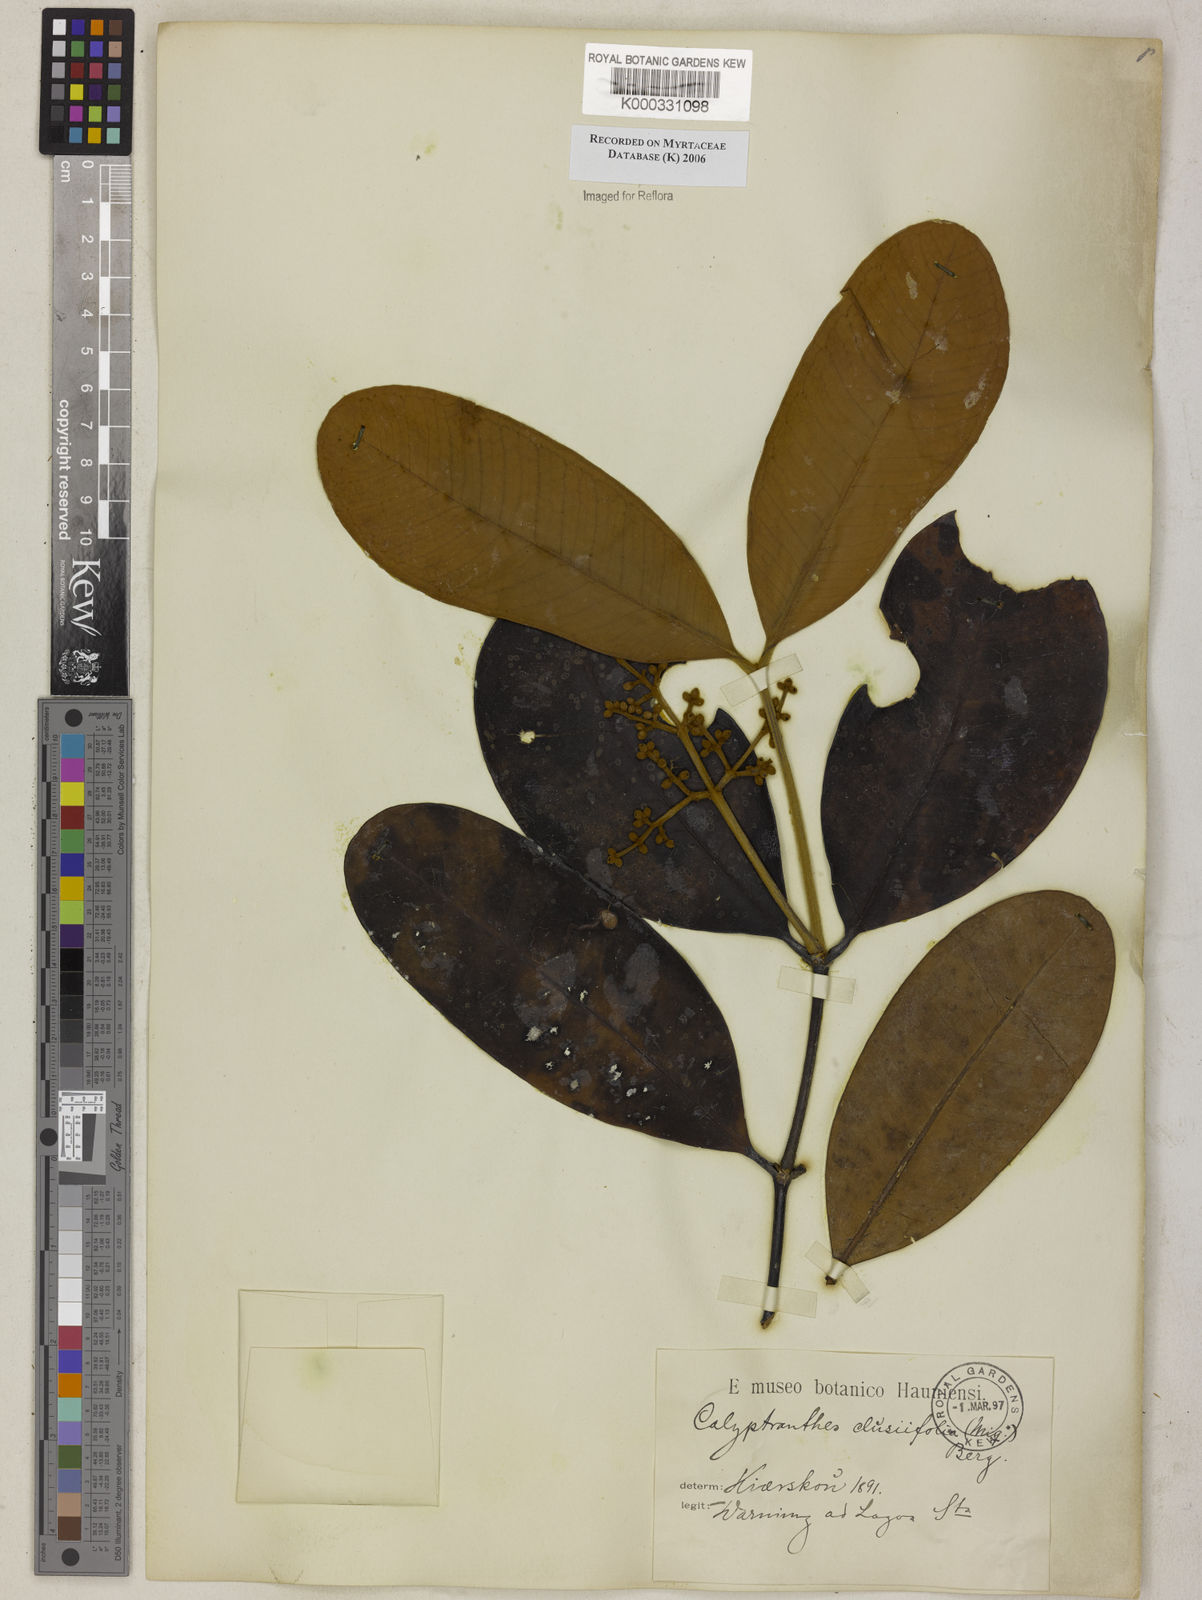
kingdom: Plantae
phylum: Tracheophyta
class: Magnoliopsida
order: Myrtales
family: Myrtaceae
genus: Calyptranthes
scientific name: Calyptranthes
